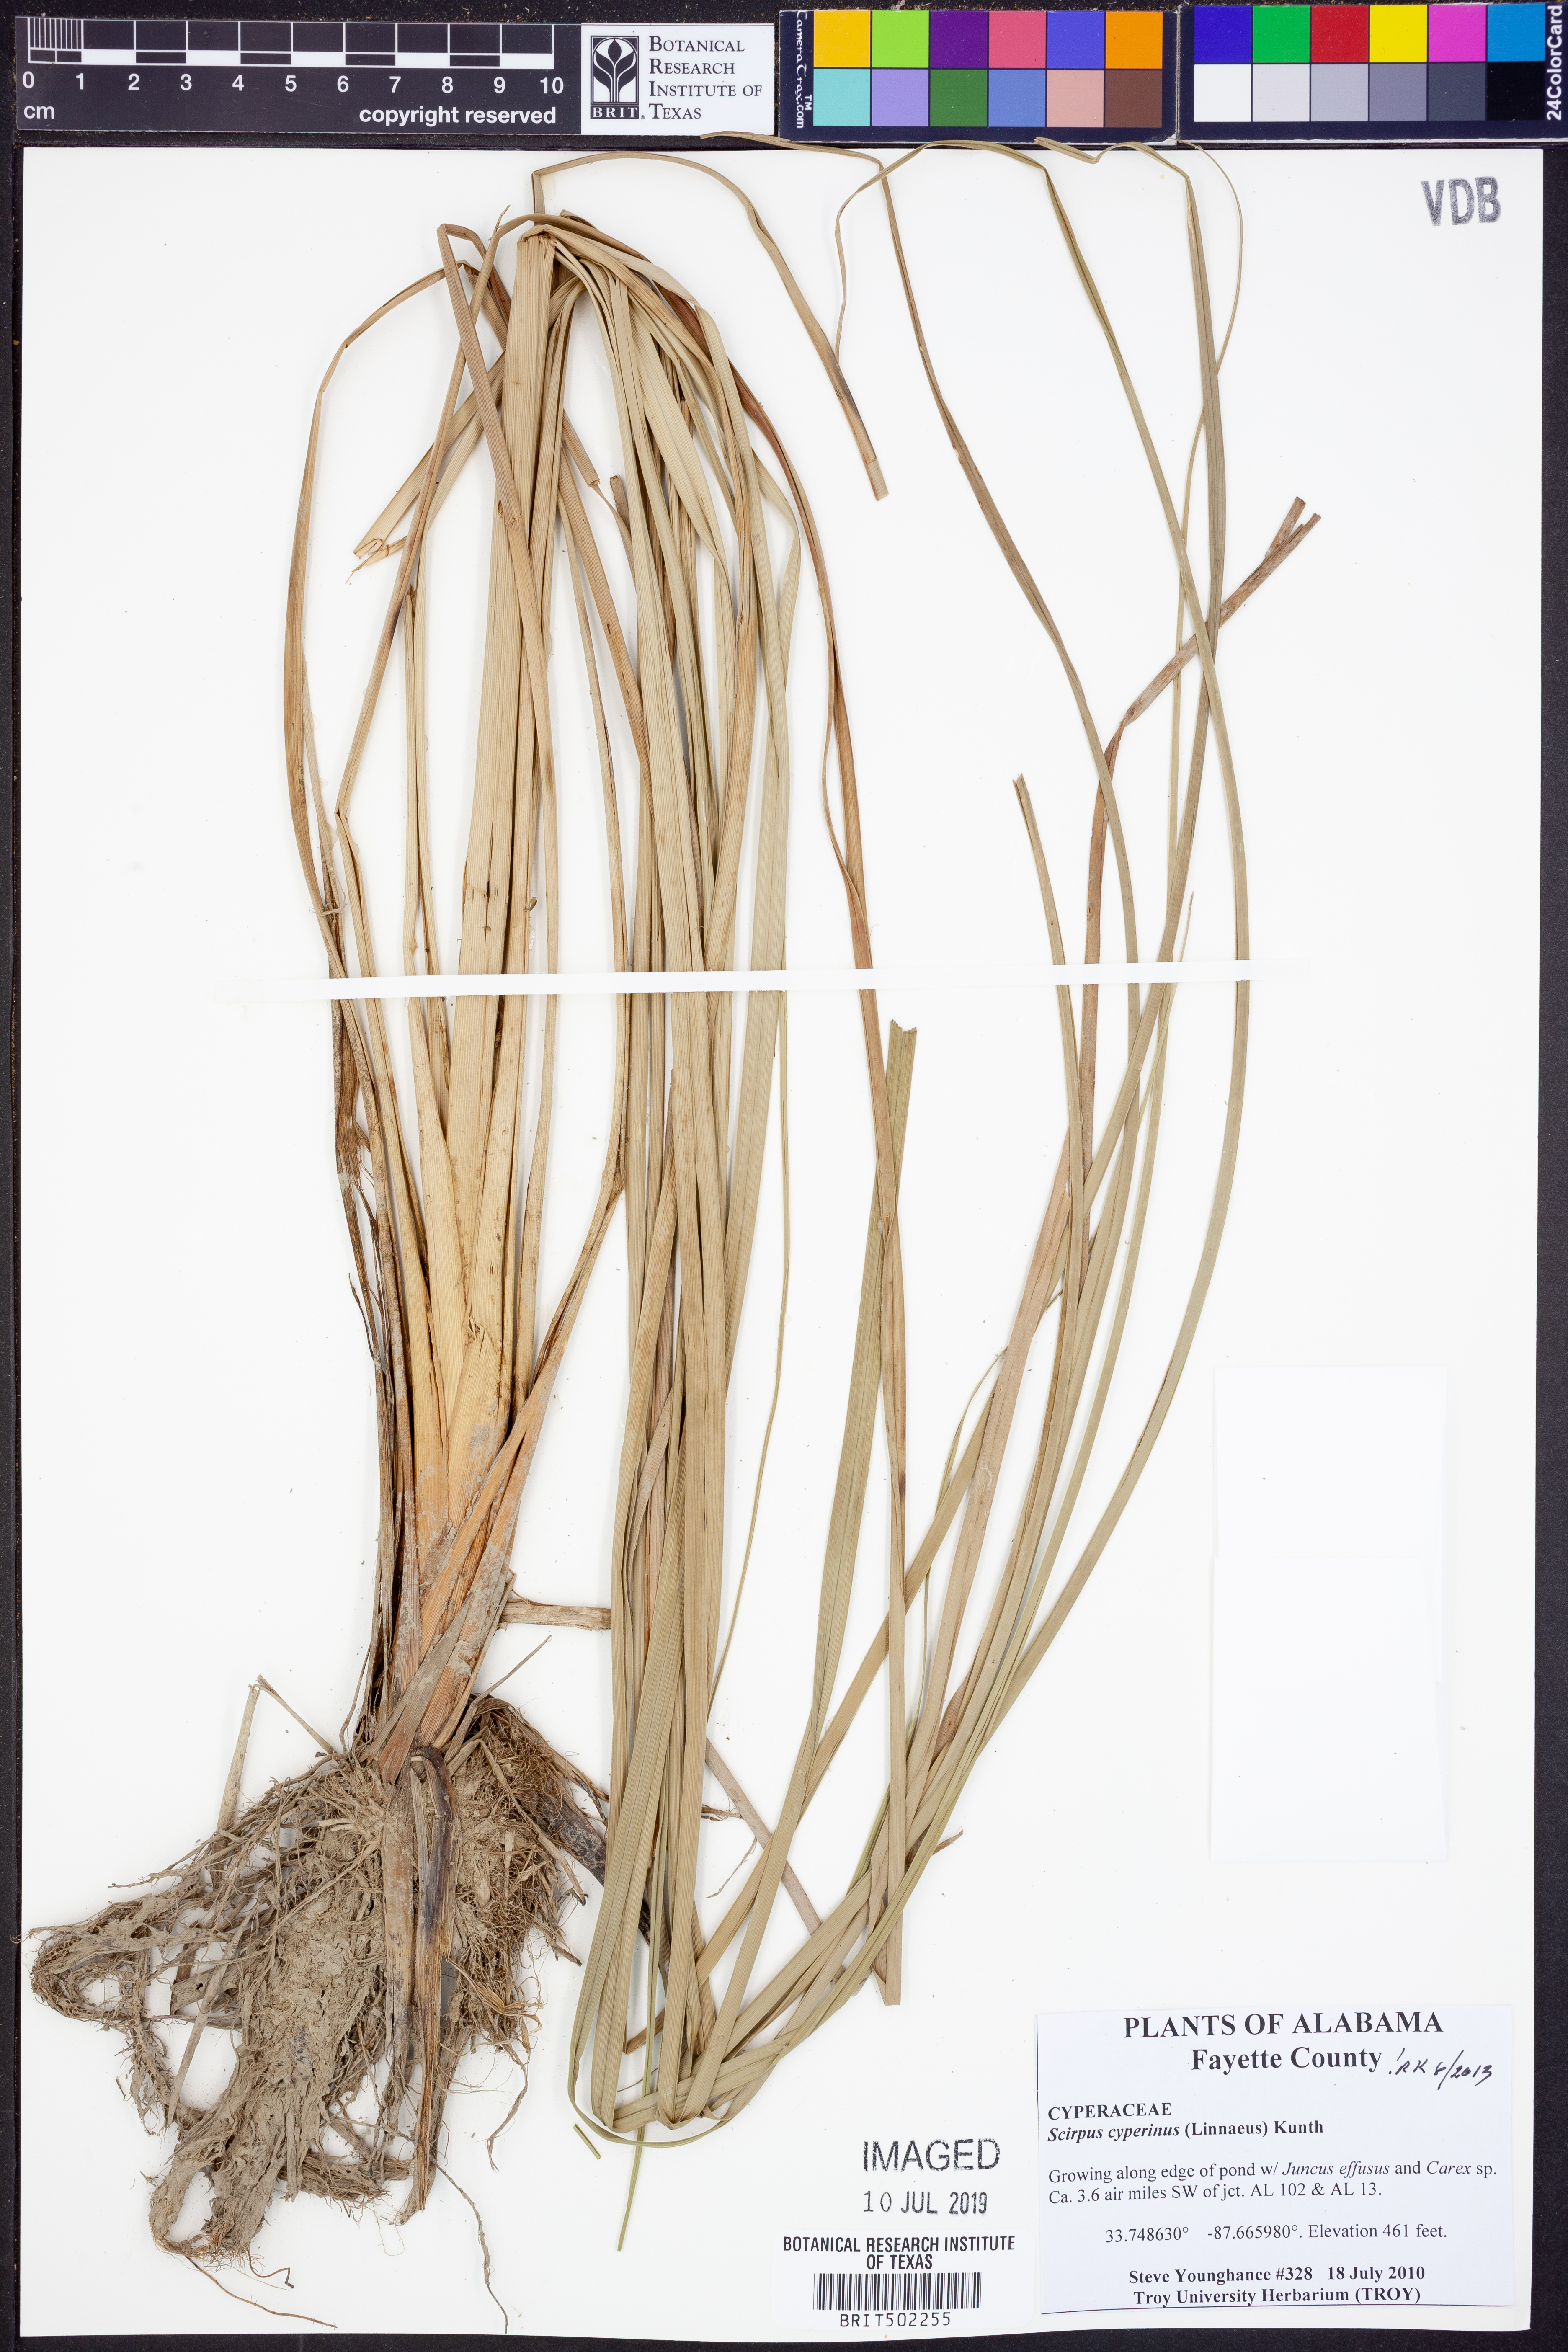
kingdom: Plantae
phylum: Tracheophyta
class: Liliopsida
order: Poales
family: Cyperaceae
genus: Scirpus
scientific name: Scirpus cyperinus
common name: Black-sheathed bulrush
